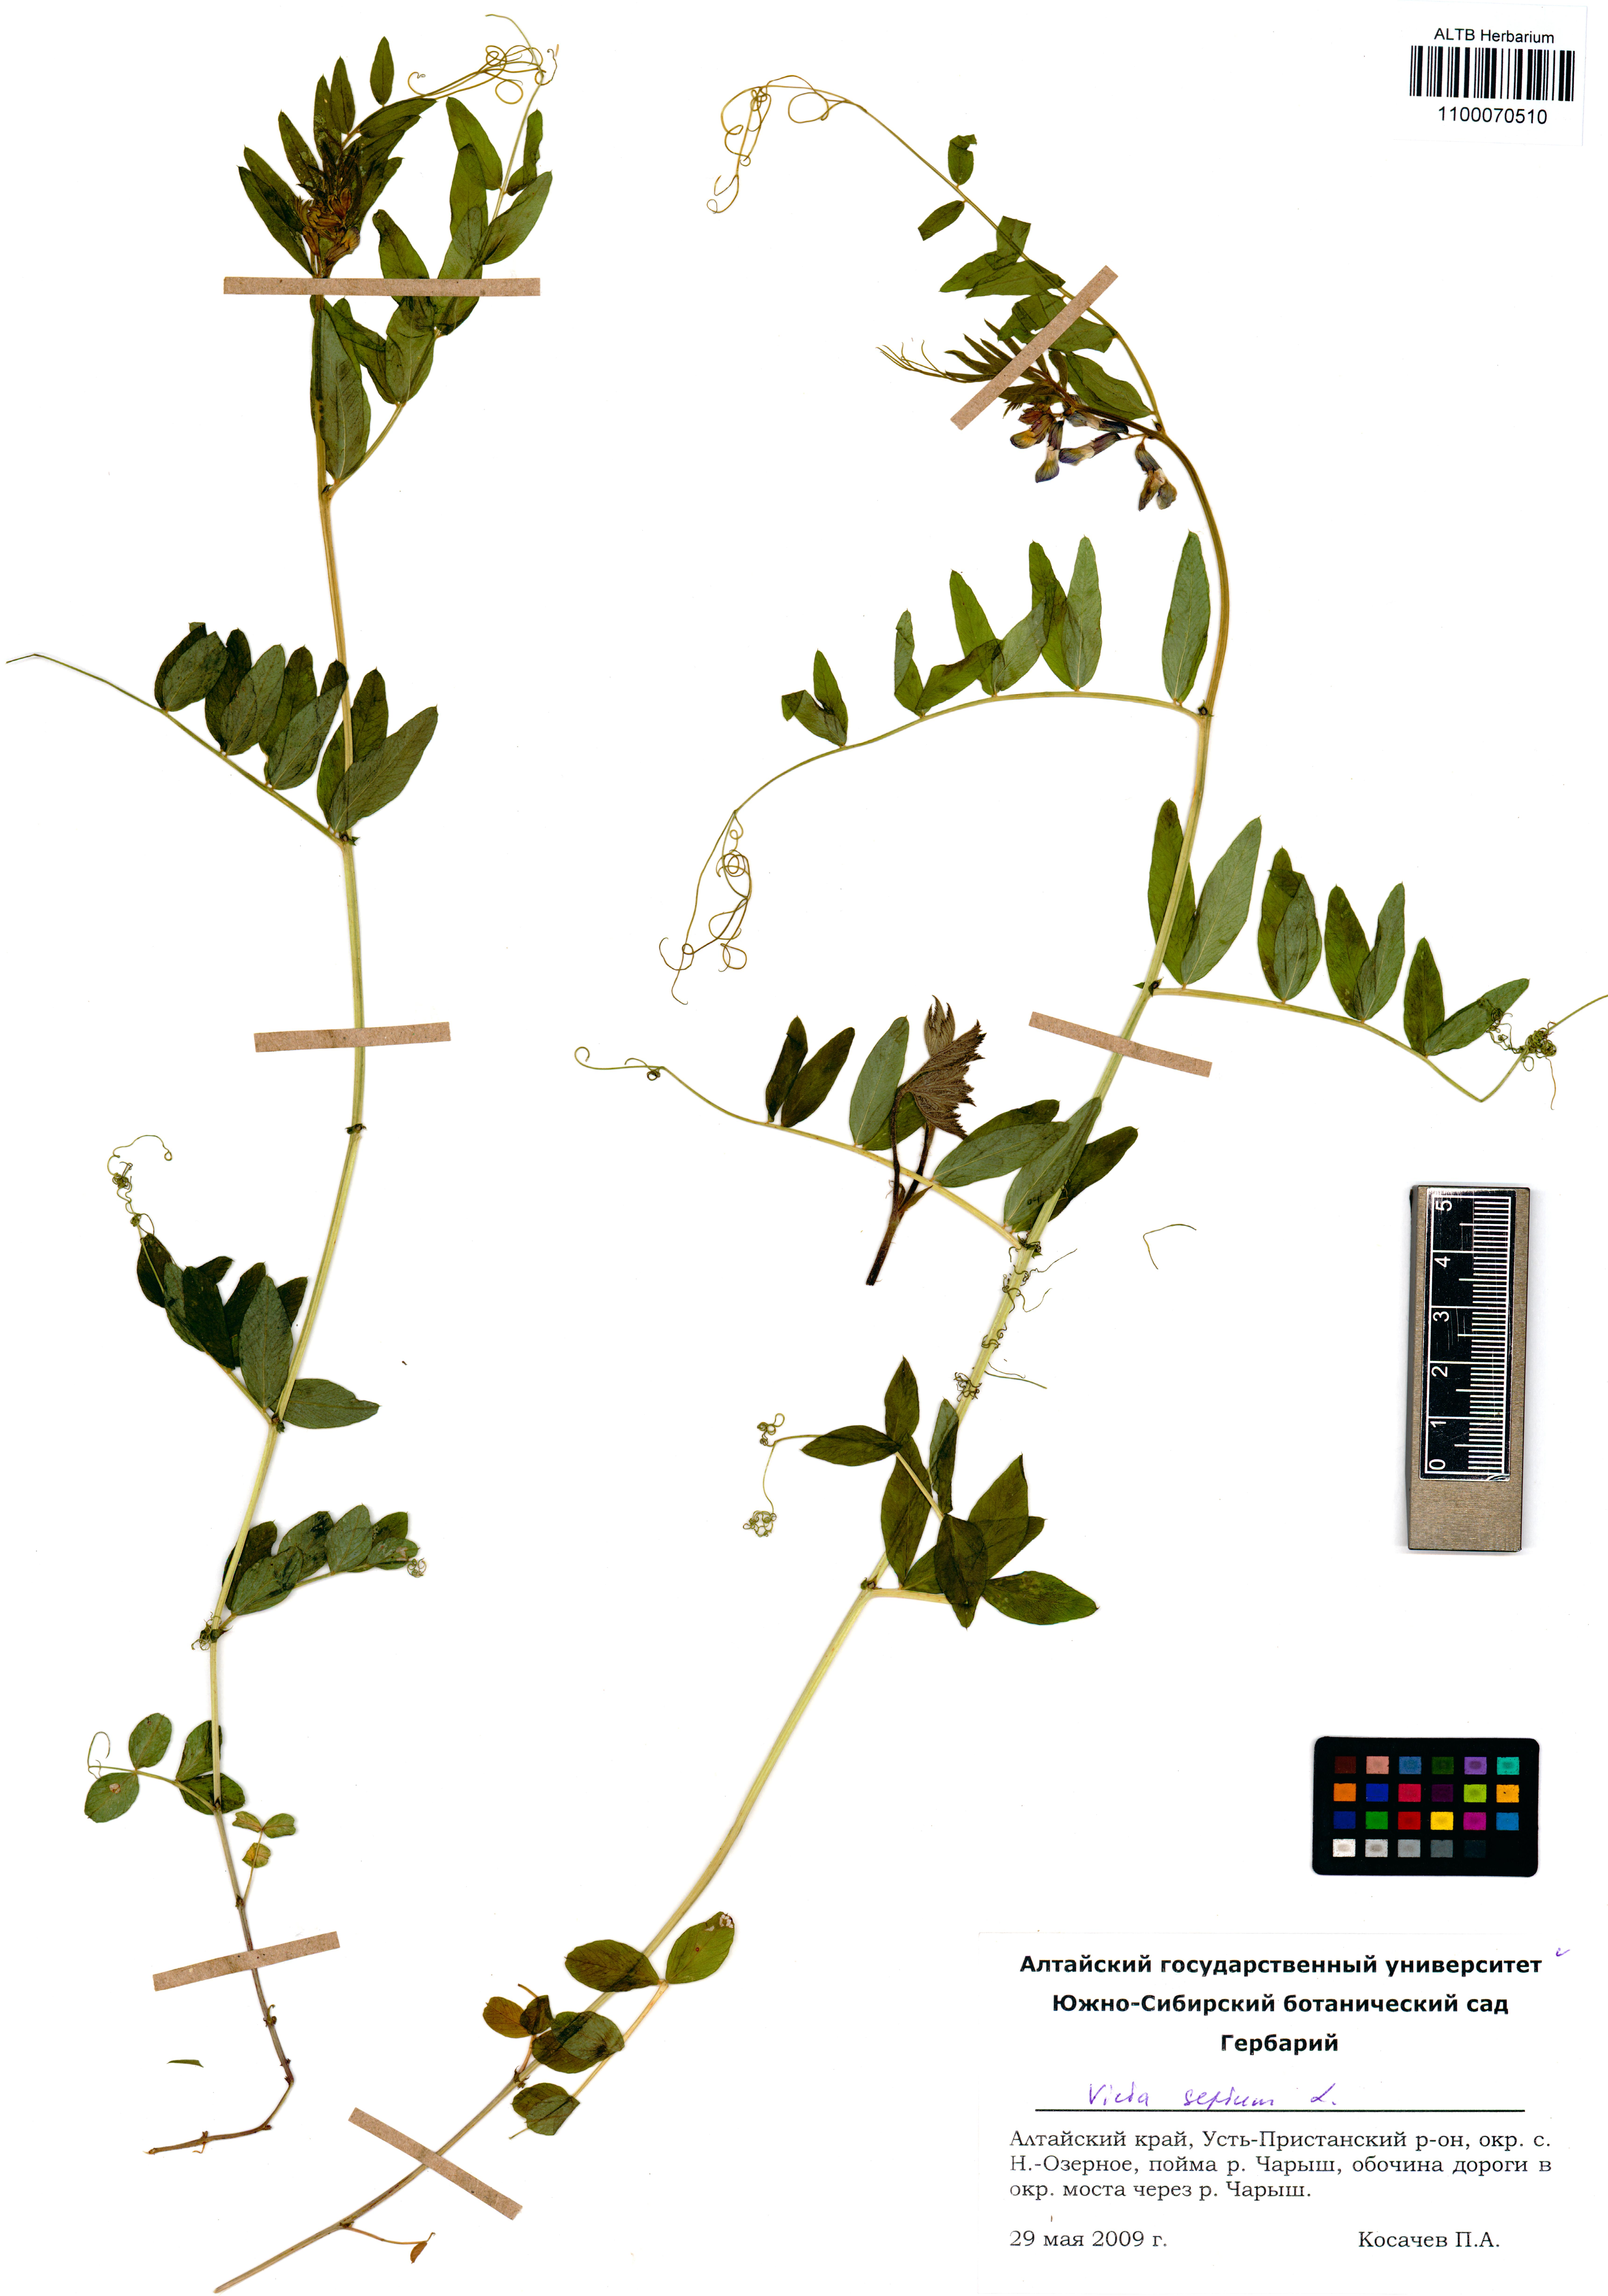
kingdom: Plantae
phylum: Tracheophyta
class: Magnoliopsida
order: Fabales
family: Fabaceae
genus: Vicia
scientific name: Vicia sepium
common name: Bush vetch
